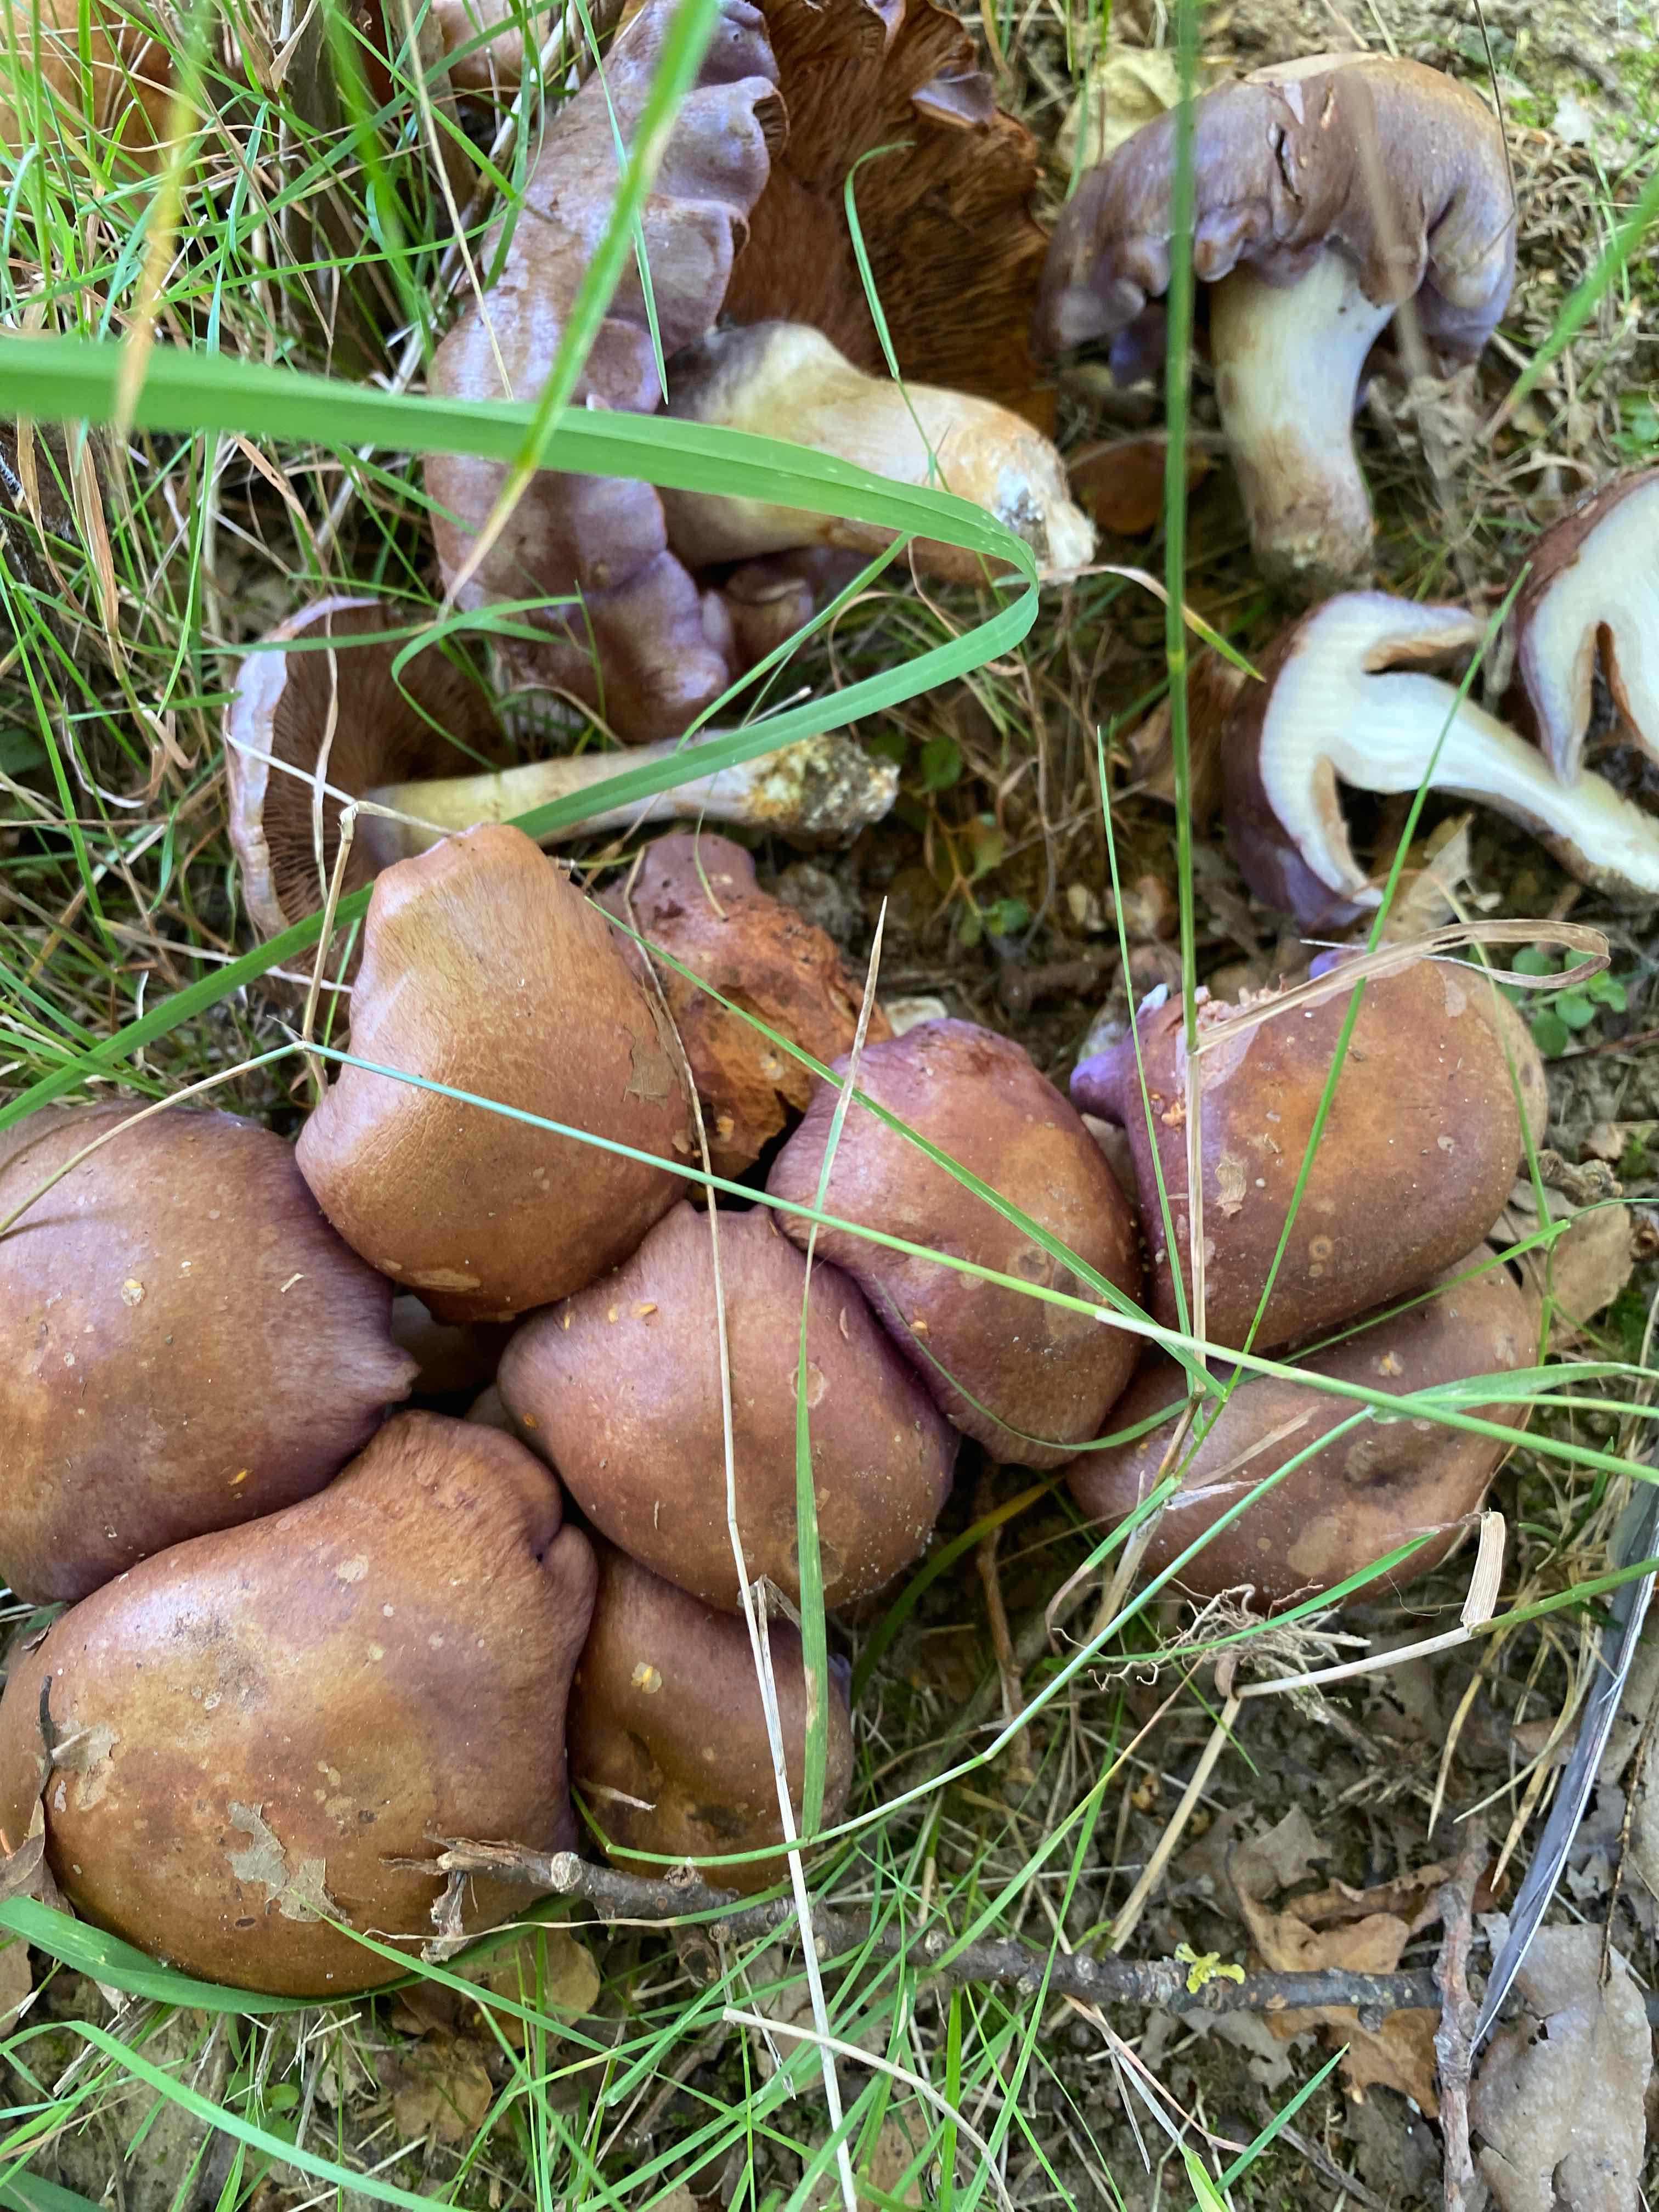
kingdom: Fungi
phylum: Basidiomycota
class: Agaricomycetes
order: Agaricales
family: Cortinariaceae
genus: Phlegmacium
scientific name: Phlegmacium
